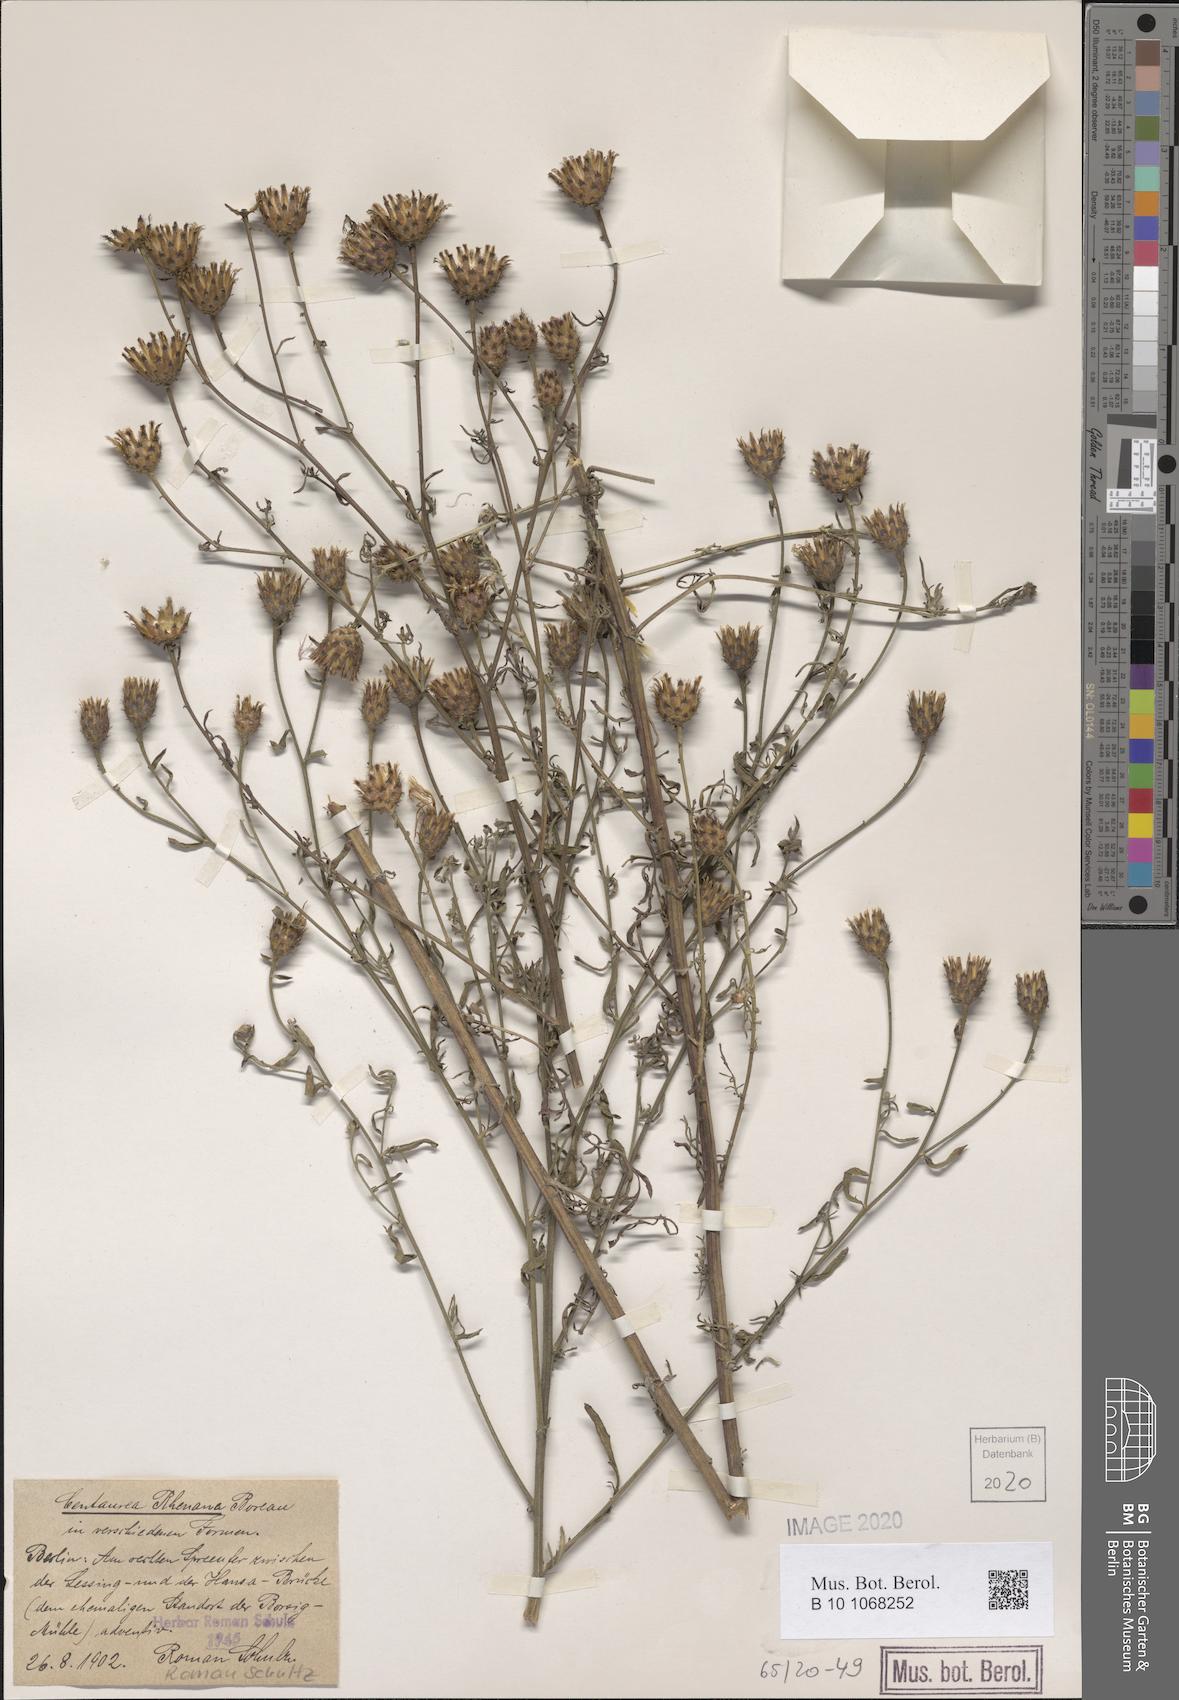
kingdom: Plantae
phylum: Tracheophyta
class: Magnoliopsida
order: Asterales
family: Asteraceae
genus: Centaurea
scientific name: Centaurea stoebe
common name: Spotted knapweed
